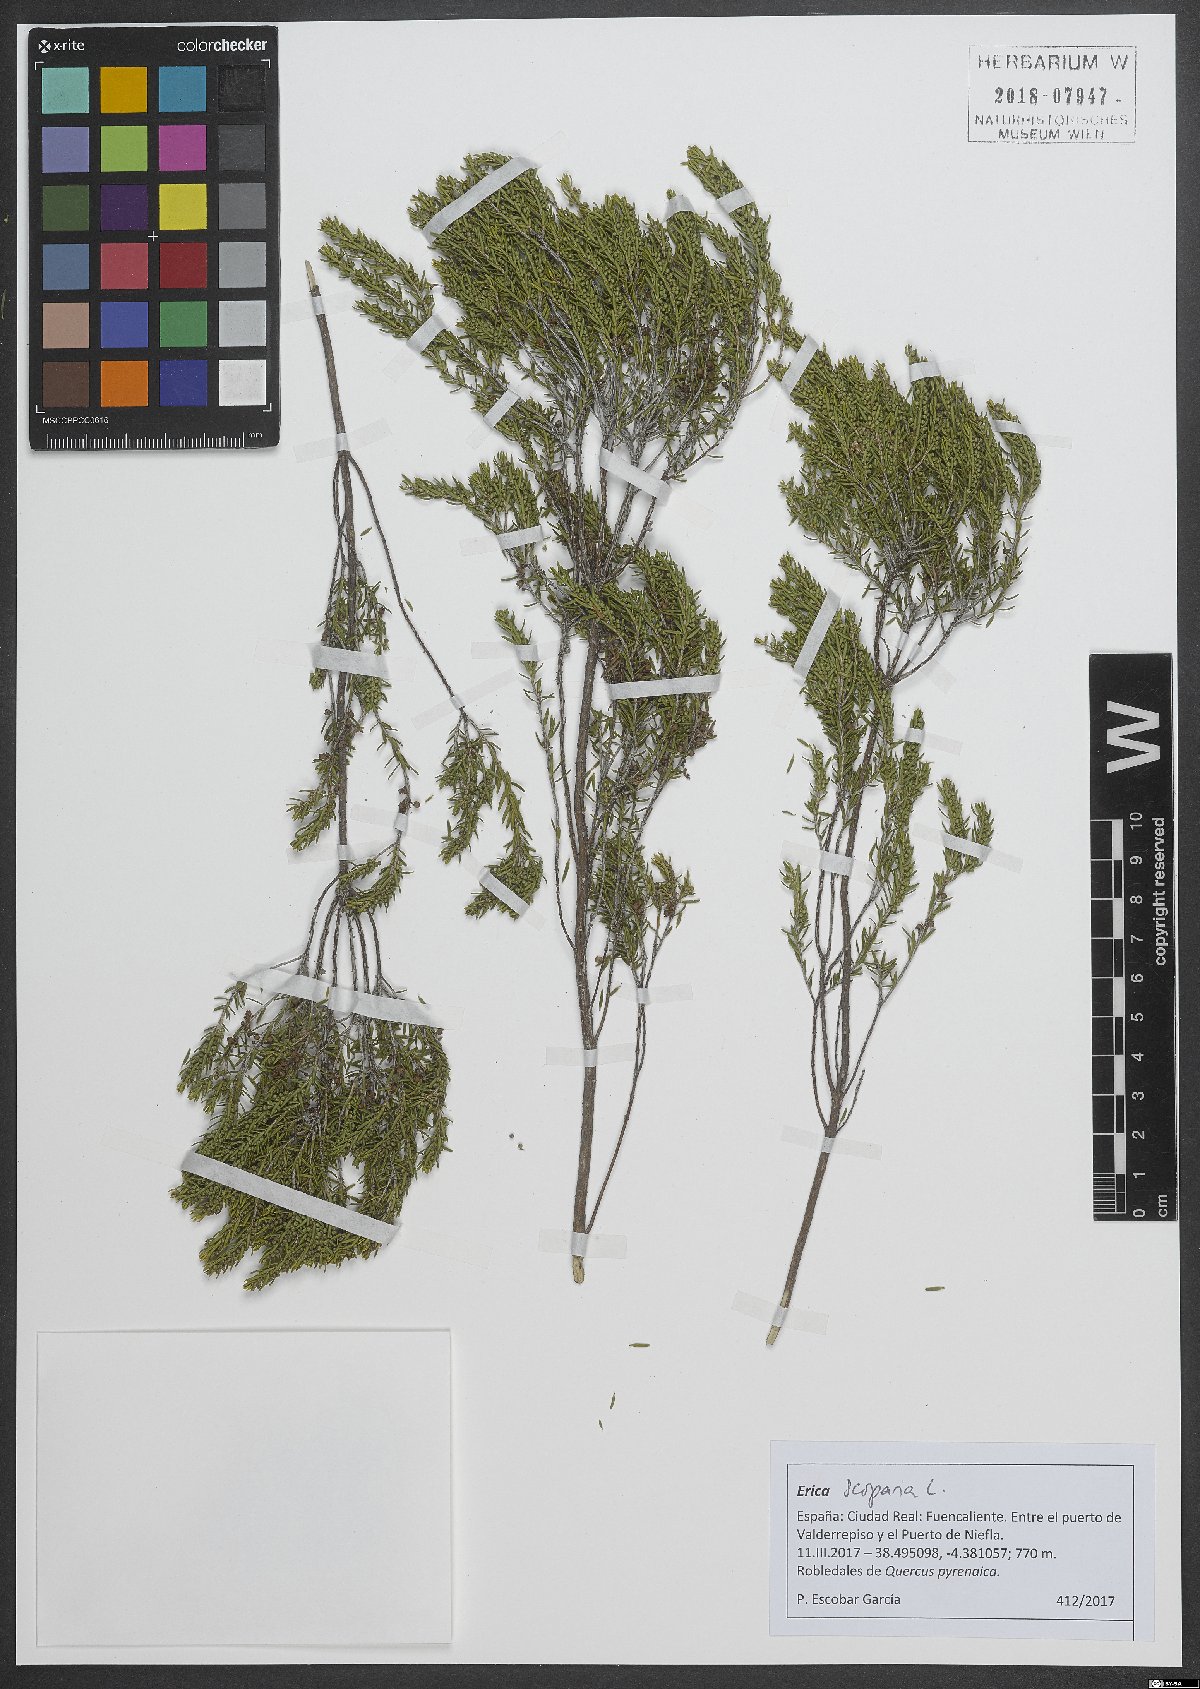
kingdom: Plantae
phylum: Tracheophyta
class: Magnoliopsida
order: Ericales
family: Ericaceae
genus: Erica
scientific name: Erica scoparia
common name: Green heather
